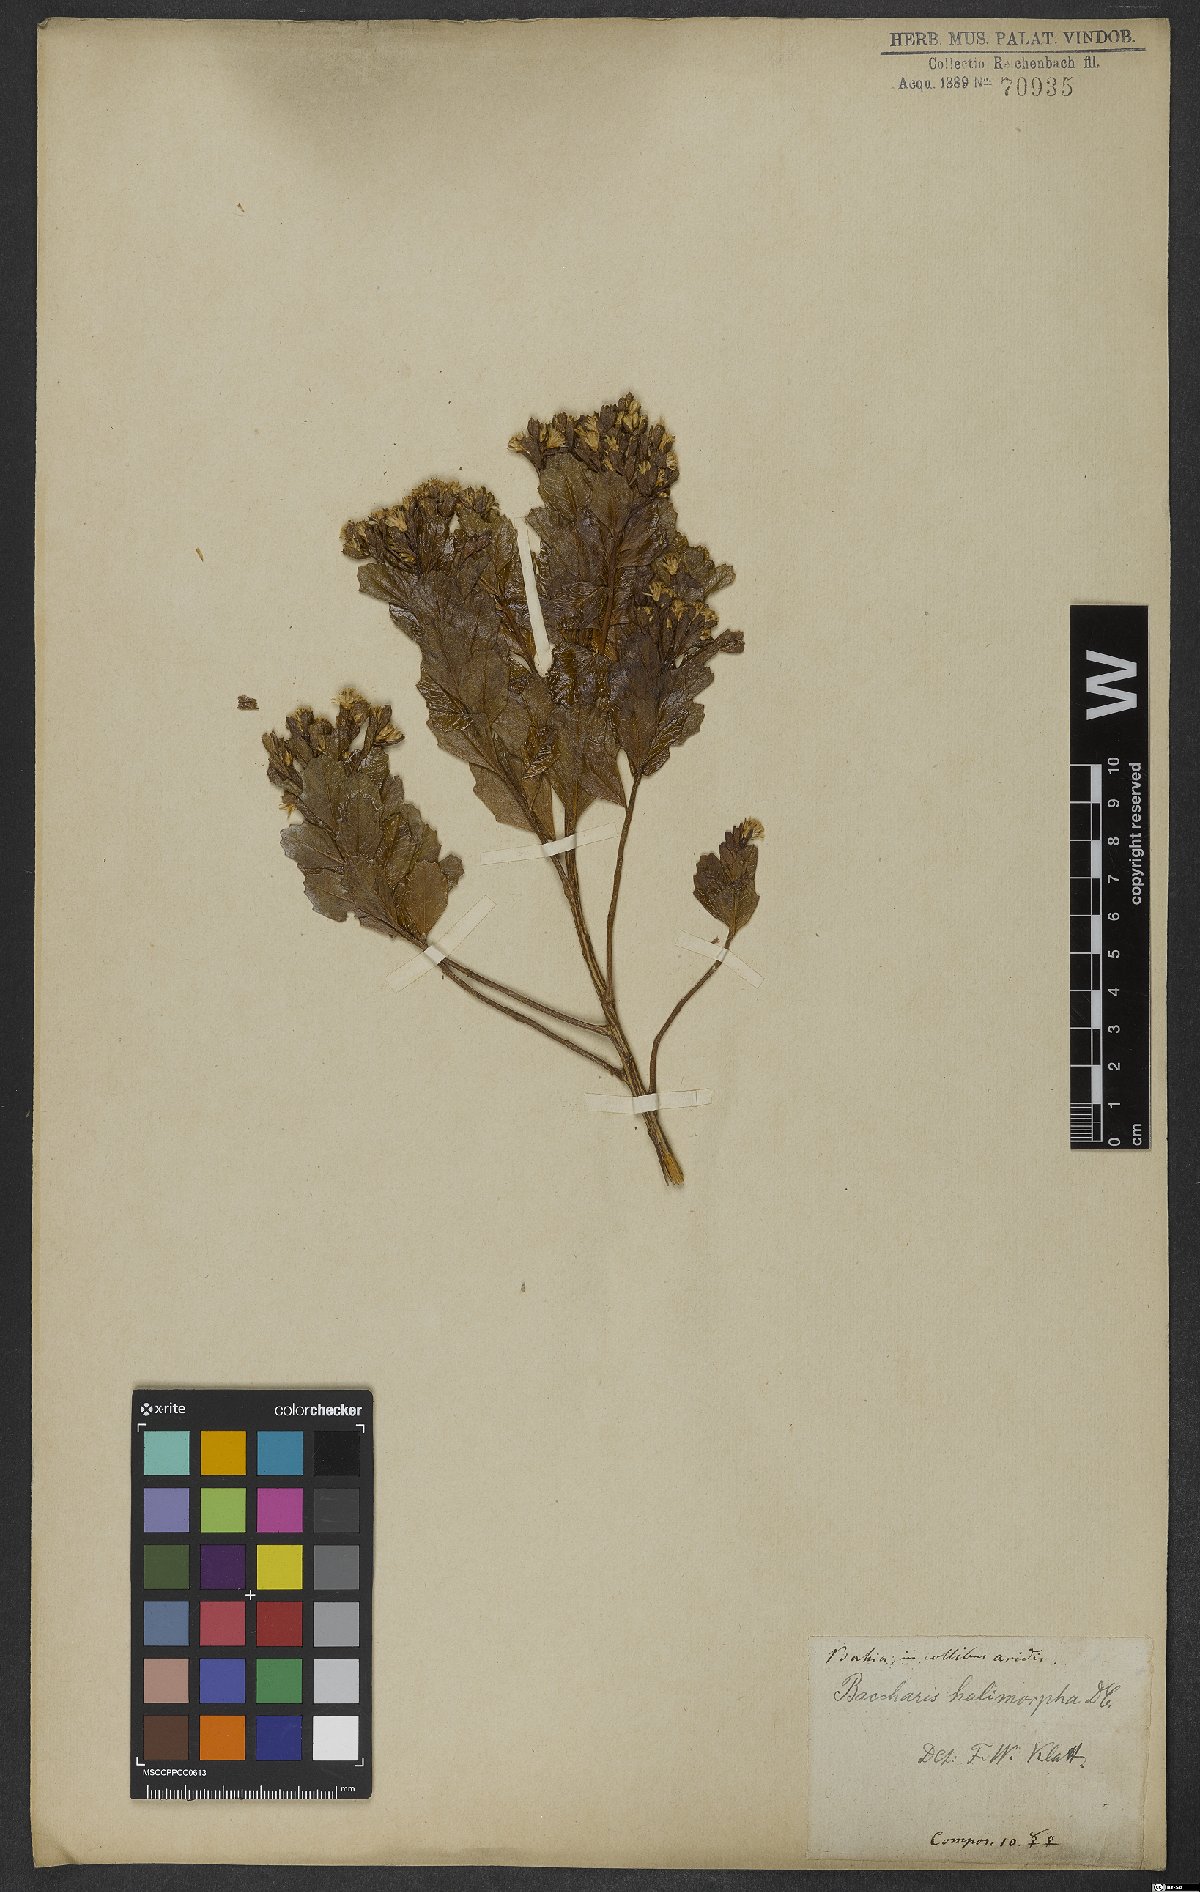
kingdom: Plantae
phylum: Tracheophyta
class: Magnoliopsida
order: Asterales
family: Asteraceae
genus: Baccharis
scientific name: Baccharis retusa
